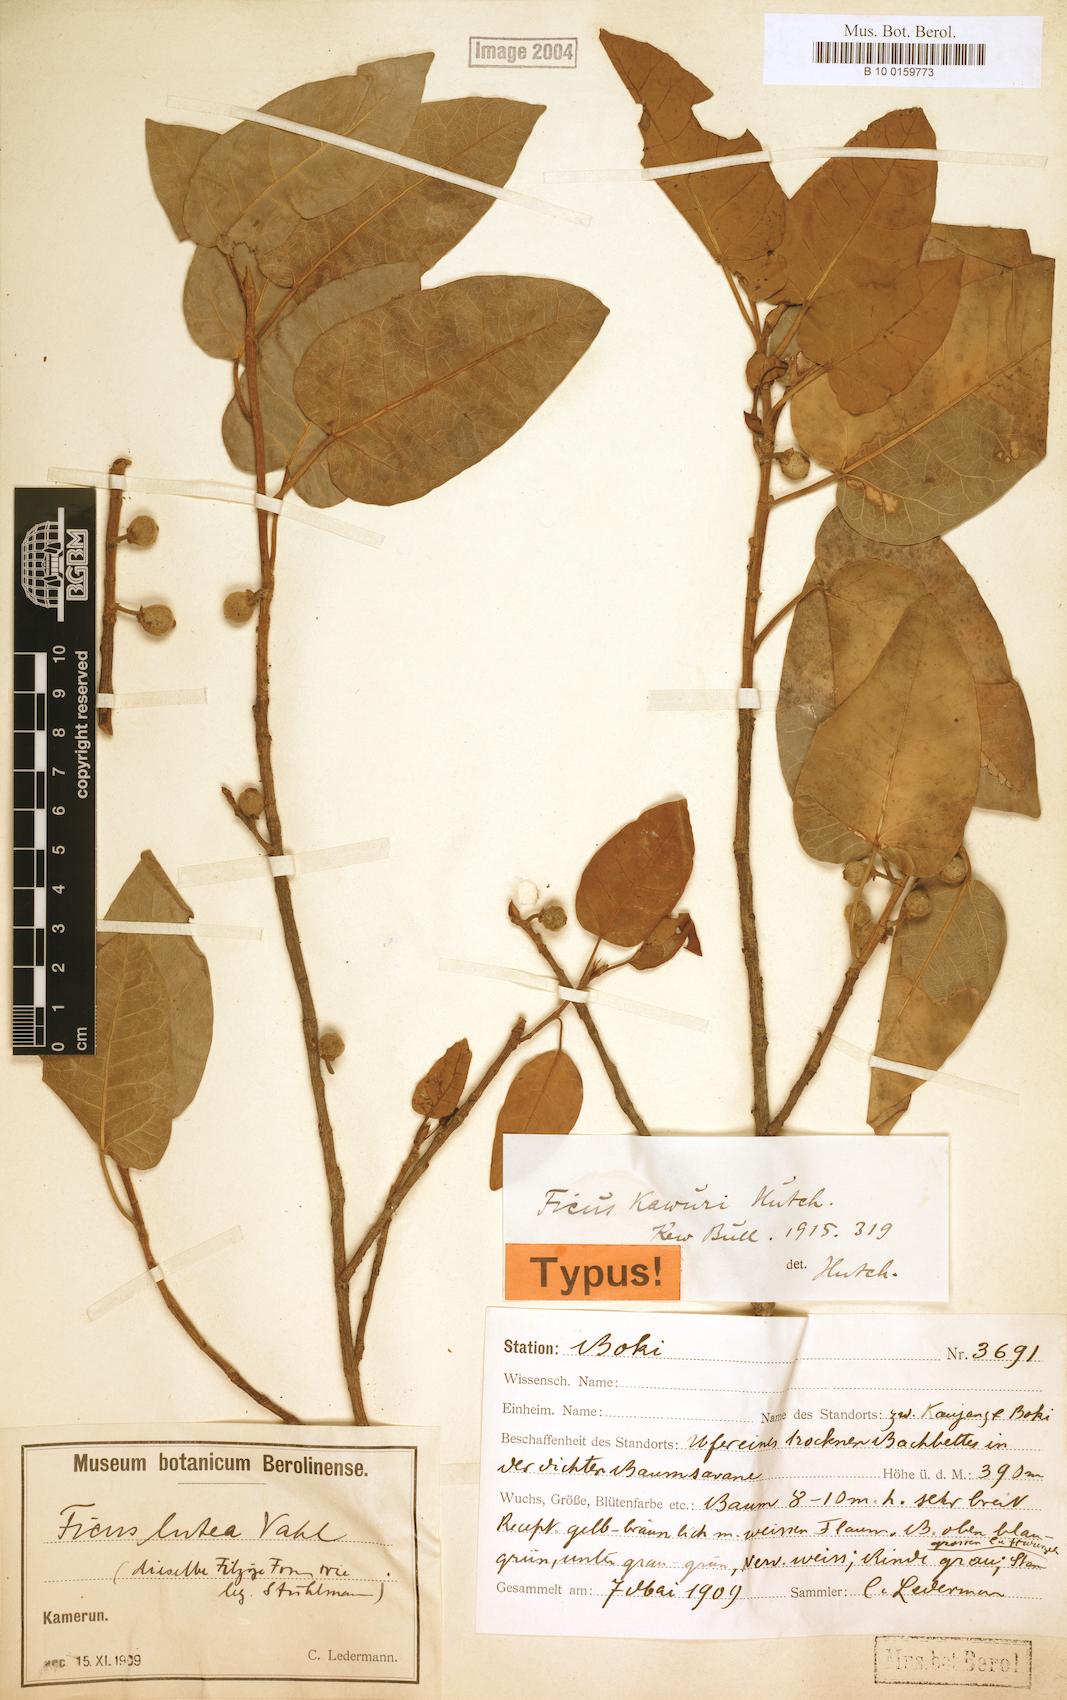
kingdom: Plantae
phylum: Tracheophyta
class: Magnoliopsida
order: Rosales
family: Moraceae
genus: Ficus
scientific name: Ficus ingens
